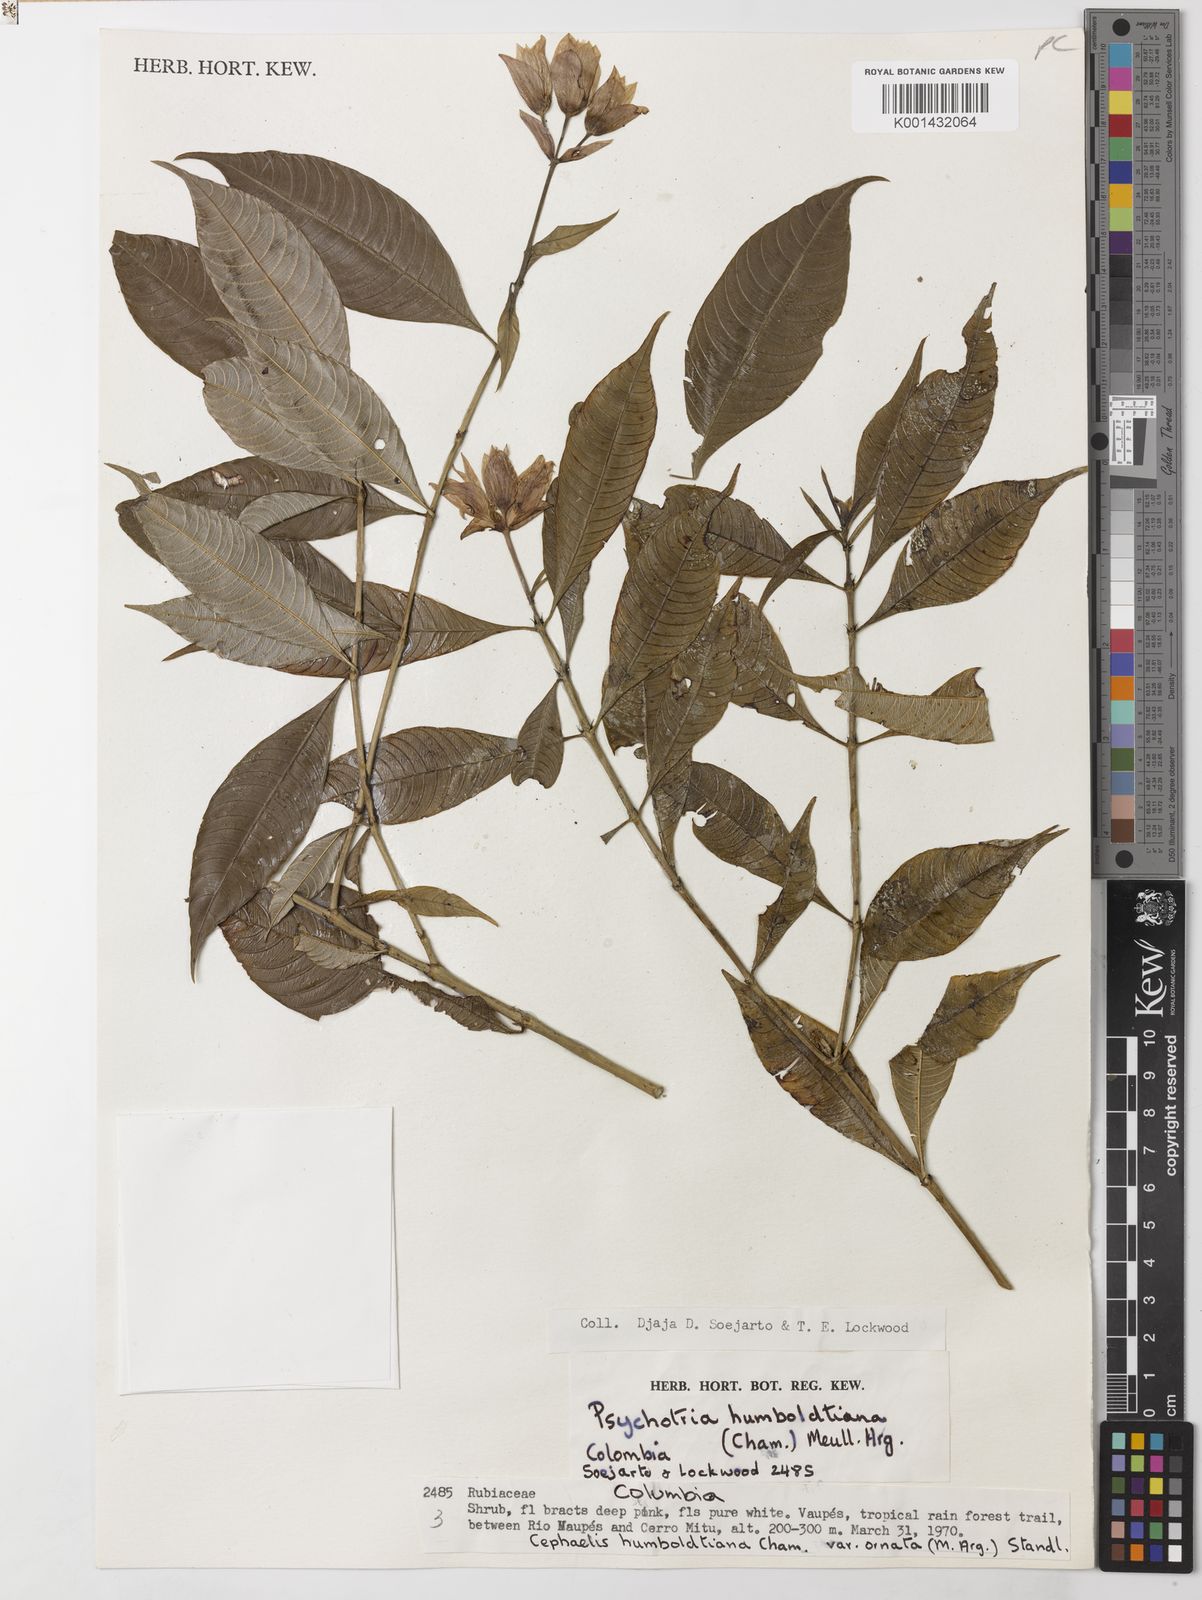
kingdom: Plantae
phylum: Tracheophyta
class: Magnoliopsida
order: Gentianales
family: Rubiaceae
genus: Psychotria
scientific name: Psychotria
